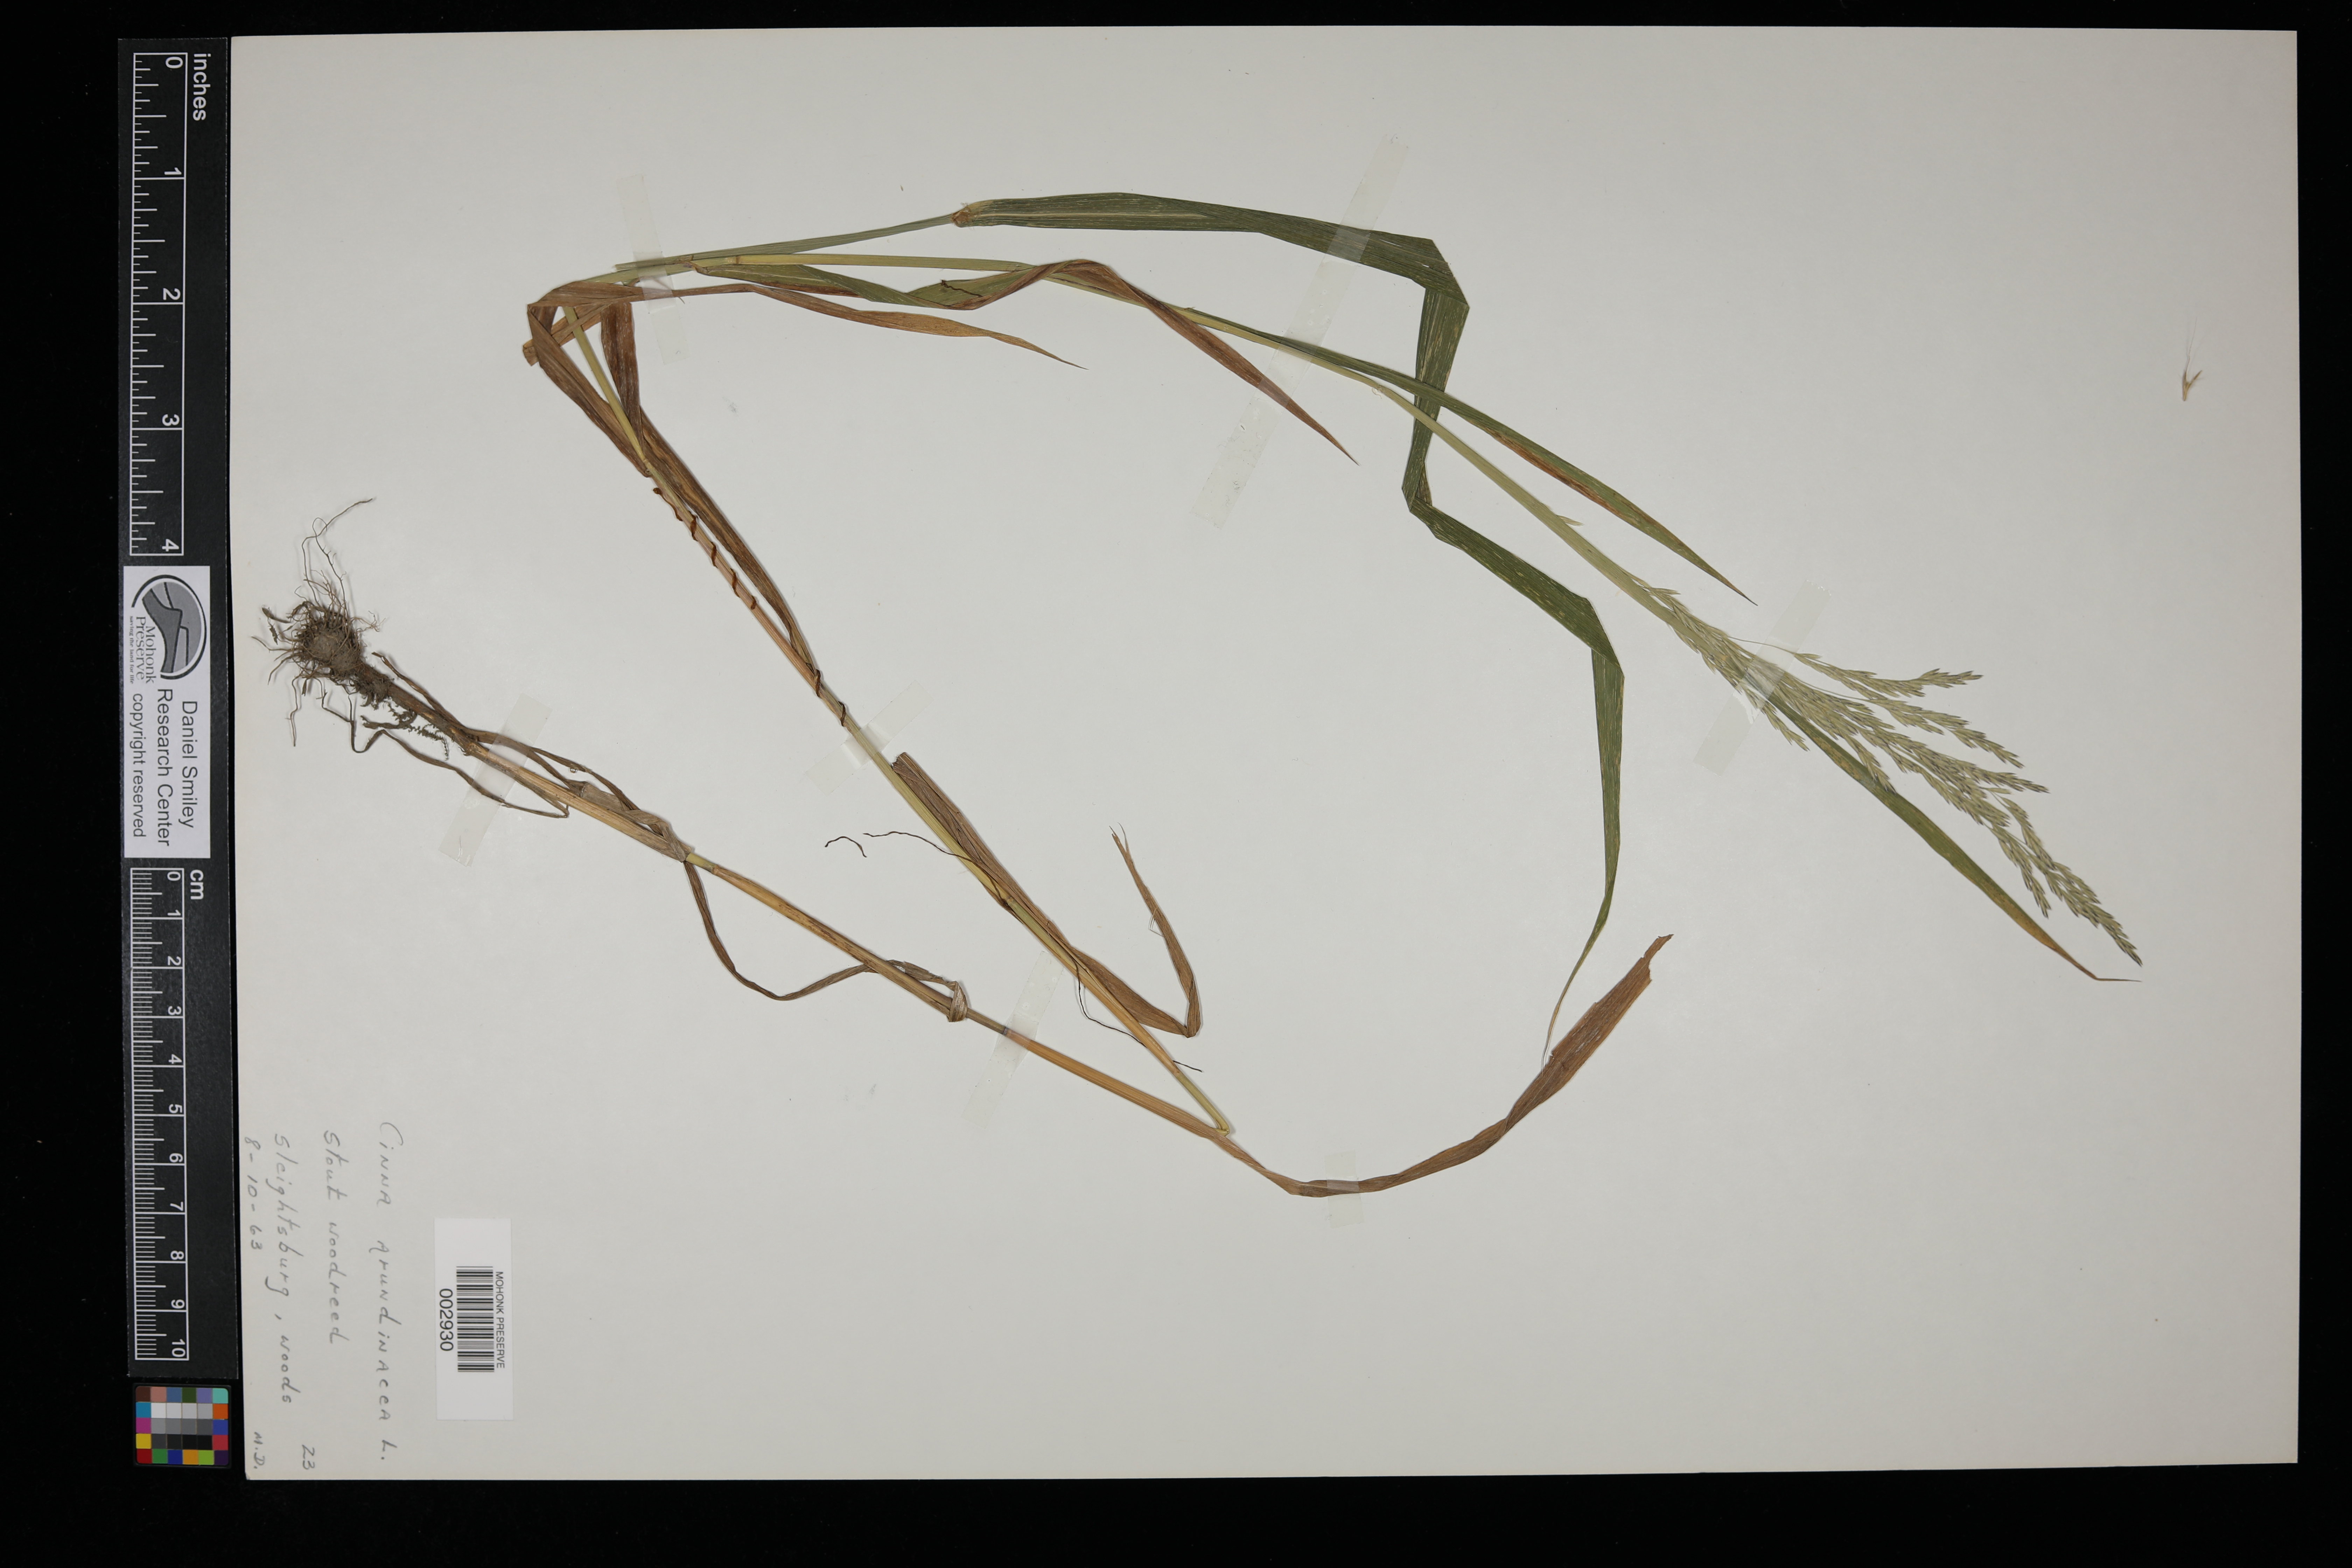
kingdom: Plantae
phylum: Tracheophyta
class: Liliopsida
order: Poales
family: Poaceae
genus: Cinna
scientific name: Cinna arundinacea
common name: Stout woodreed
